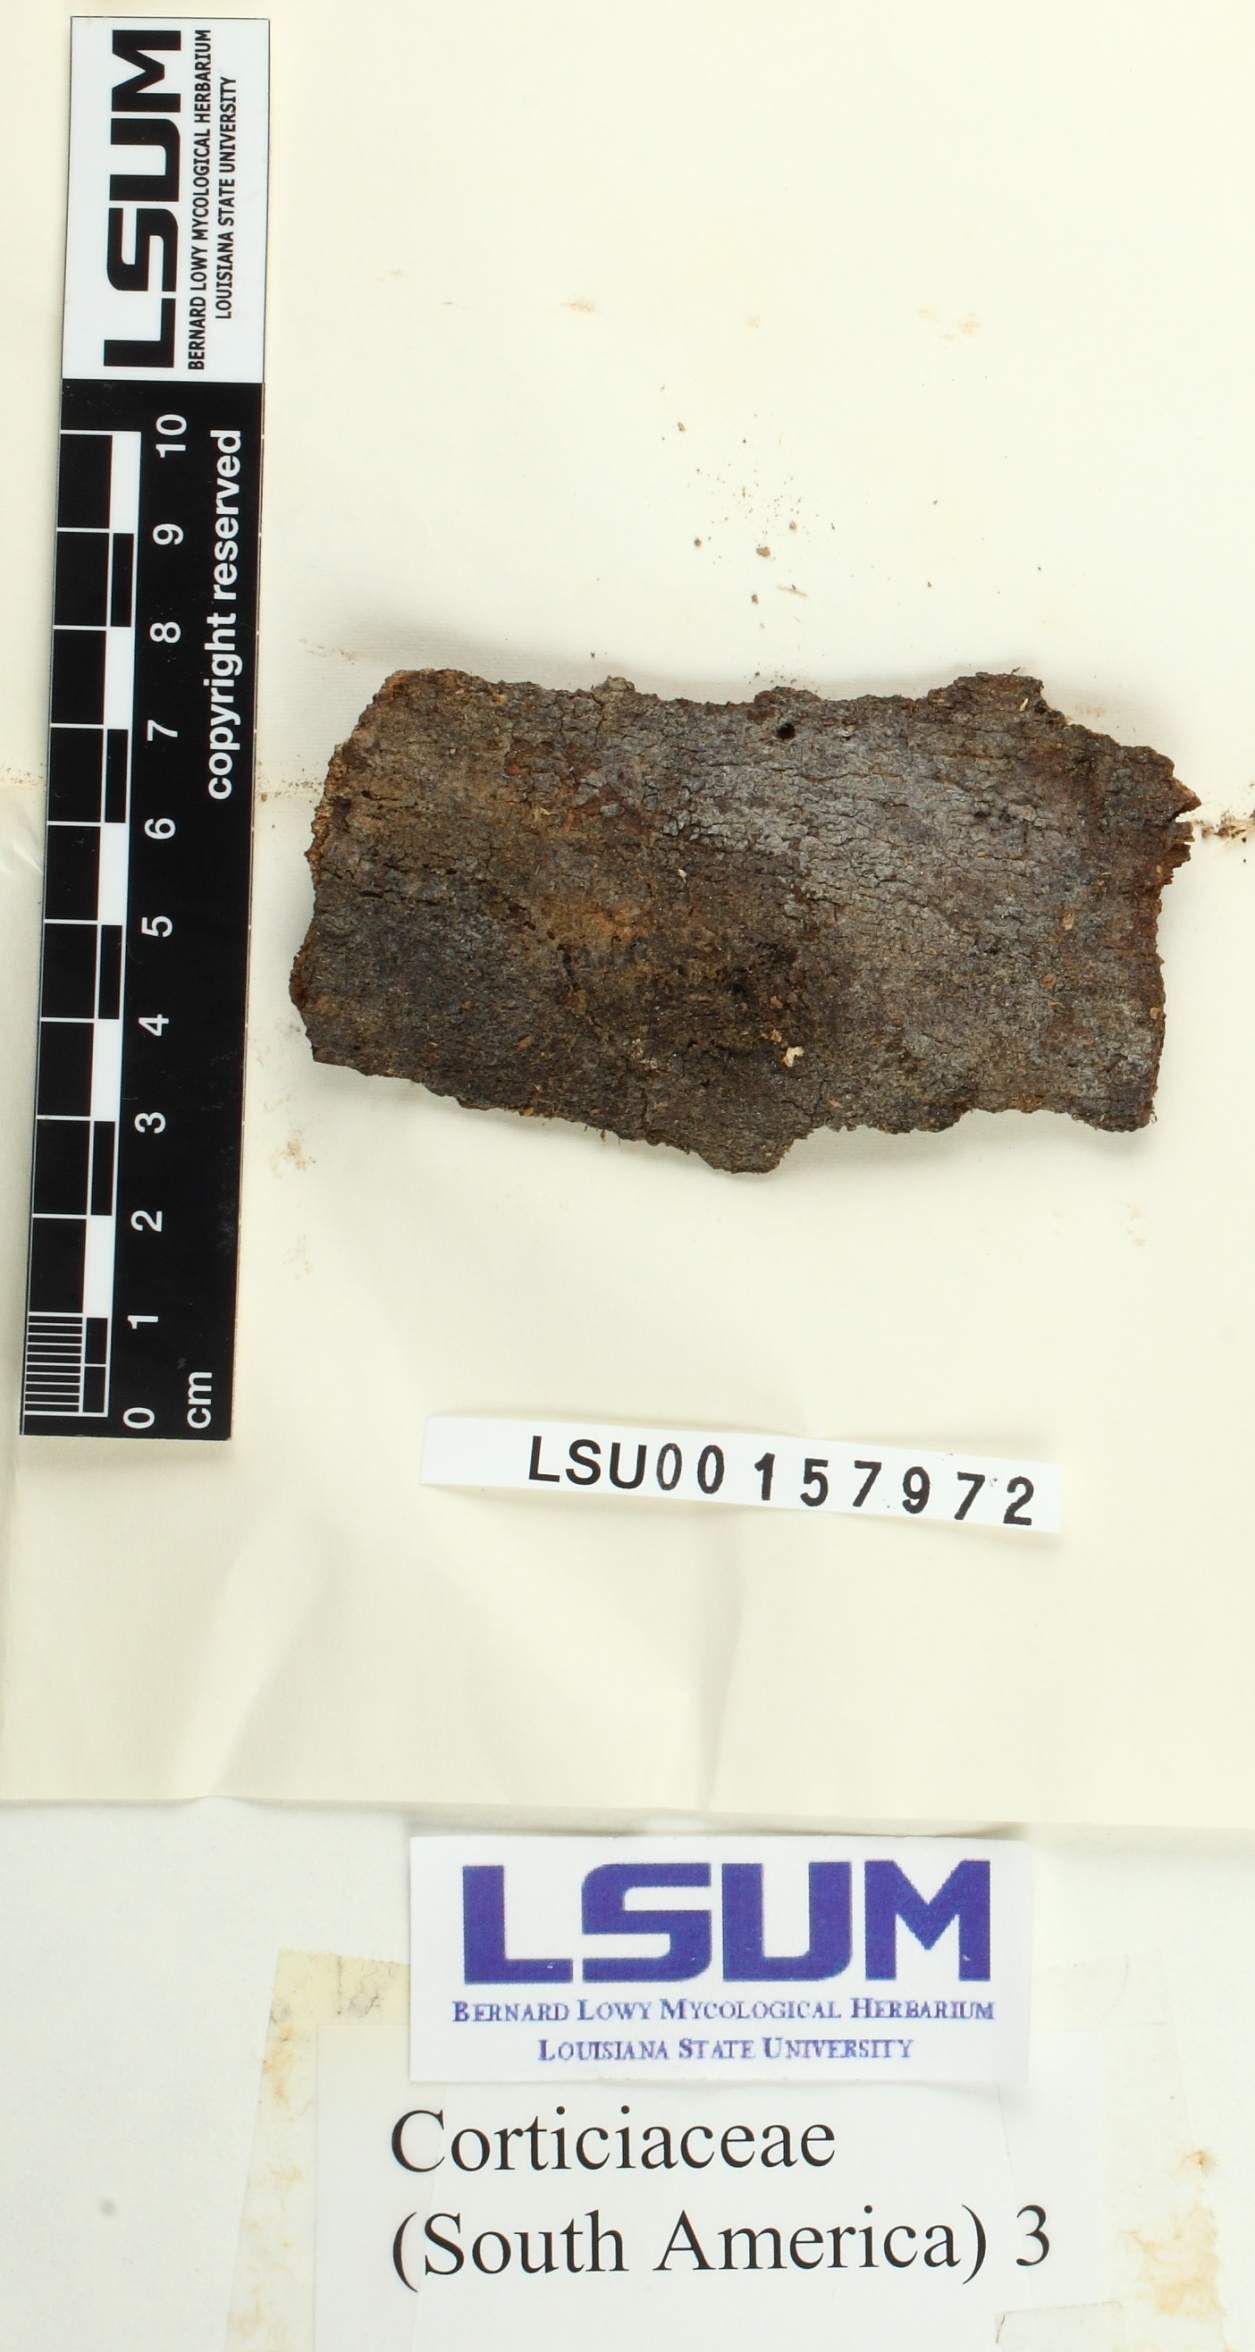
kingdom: Fungi
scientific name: Fungi
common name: Fungi
